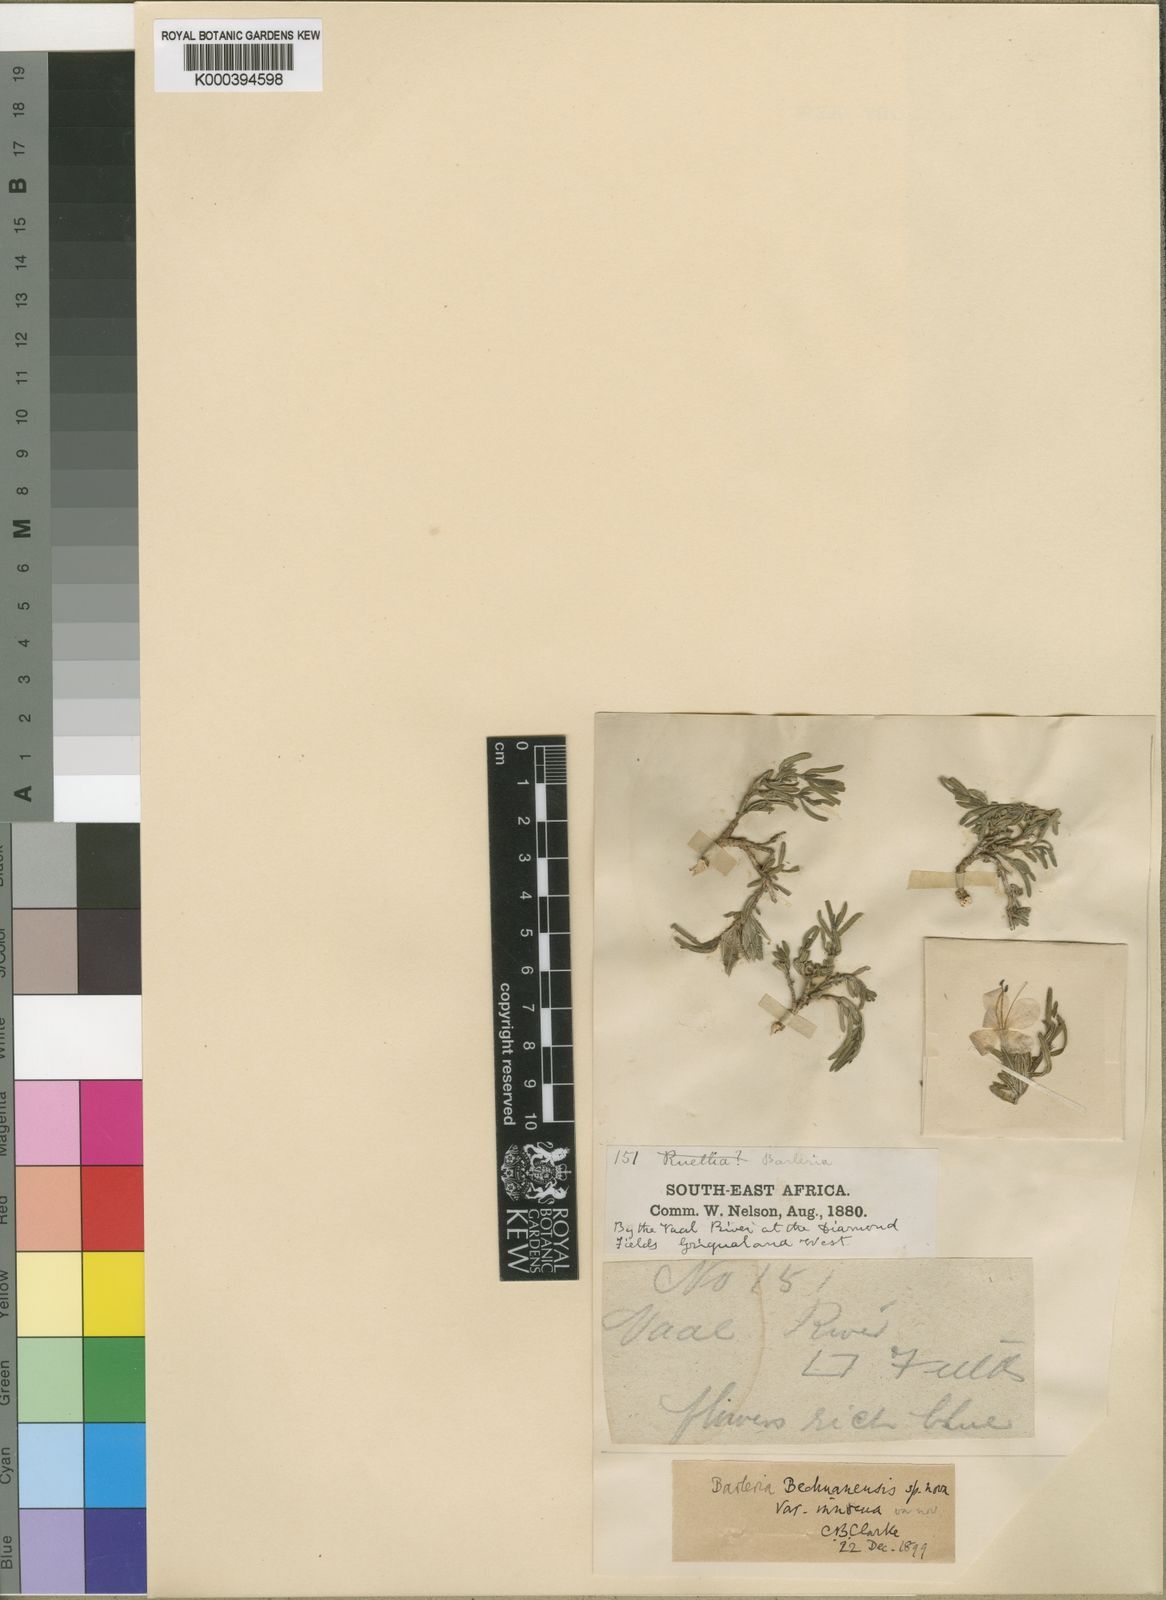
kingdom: Plantae
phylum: Tracheophyta
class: Magnoliopsida
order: Lamiales
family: Acanthaceae
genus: Barleria
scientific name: Barleria bechuanensis
